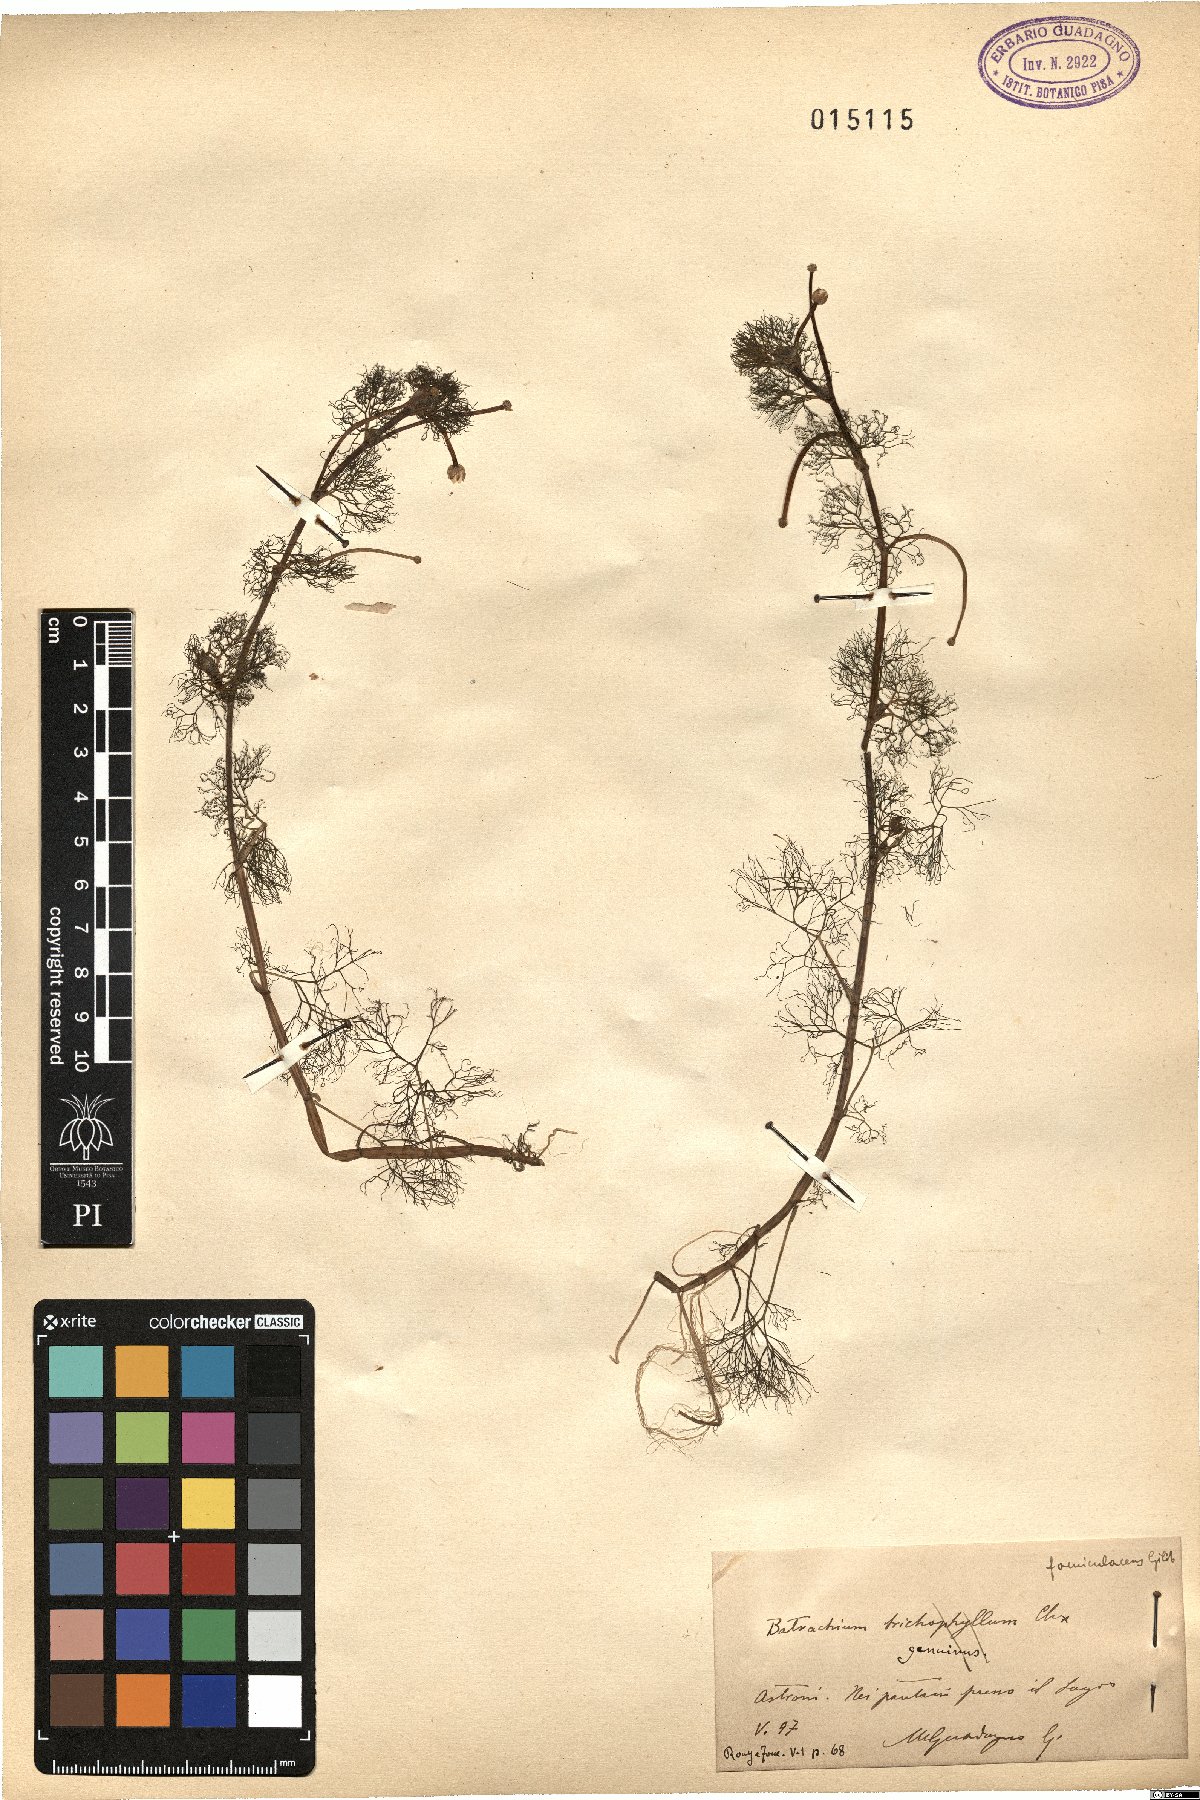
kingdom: Plantae
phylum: Tracheophyta
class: Magnoliopsida
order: Ranunculales
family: Ranunculaceae
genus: Ranunculus
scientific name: Ranunculus trichophyllus
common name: Thread-leaved water-crowfoot
